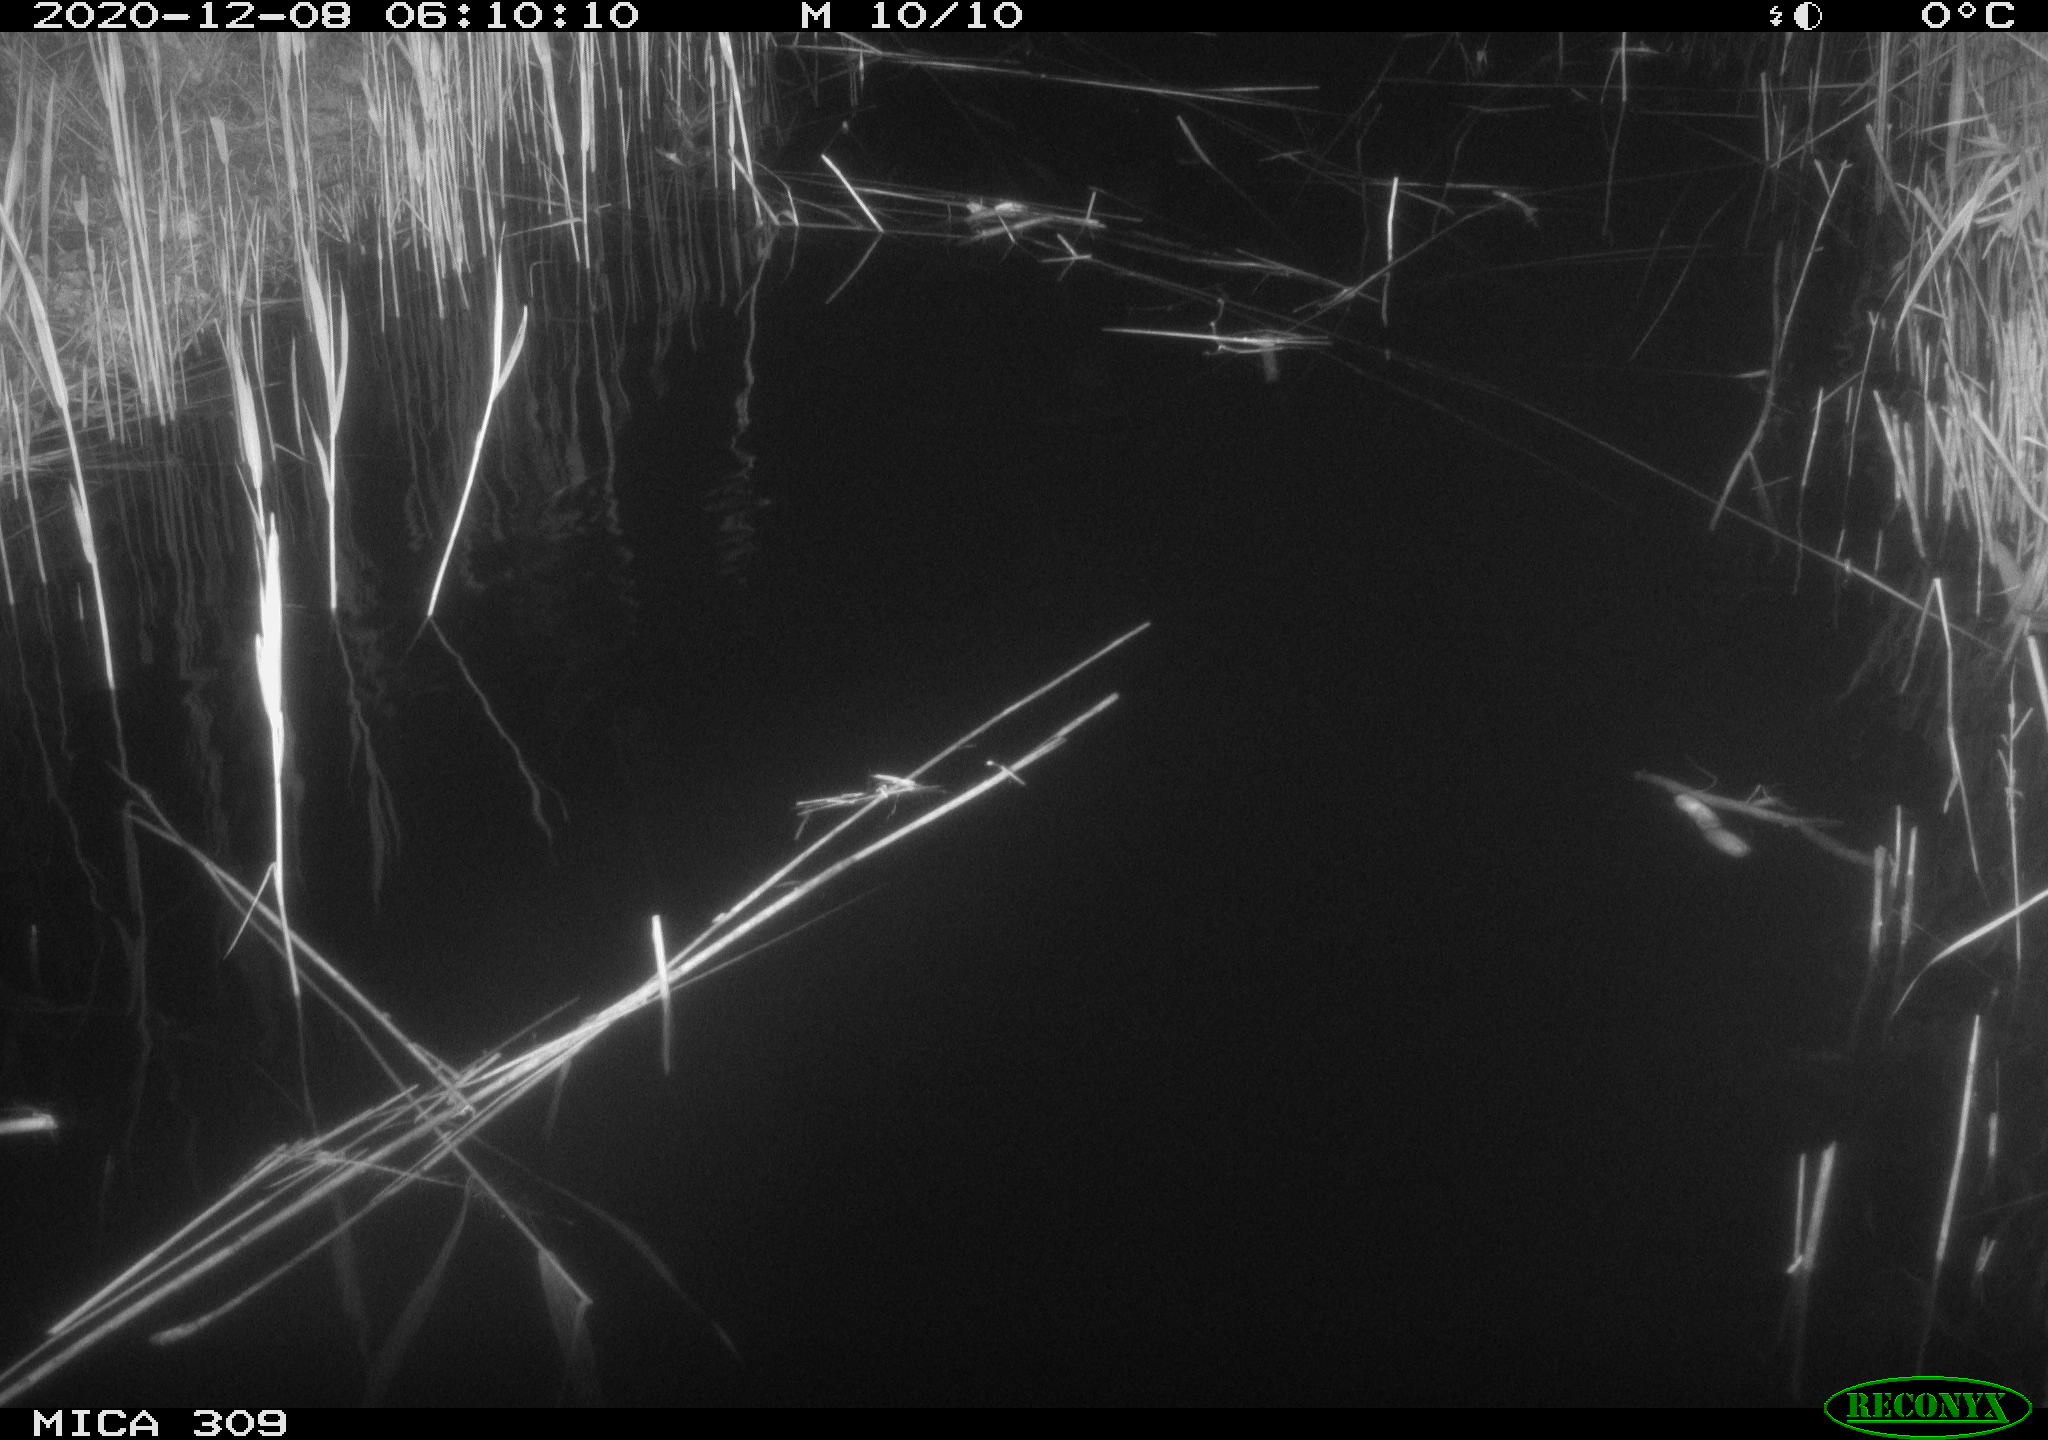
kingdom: Animalia
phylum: Chordata
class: Mammalia
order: Rodentia
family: Muridae
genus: Rattus
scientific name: Rattus norvegicus
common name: Brown rat
